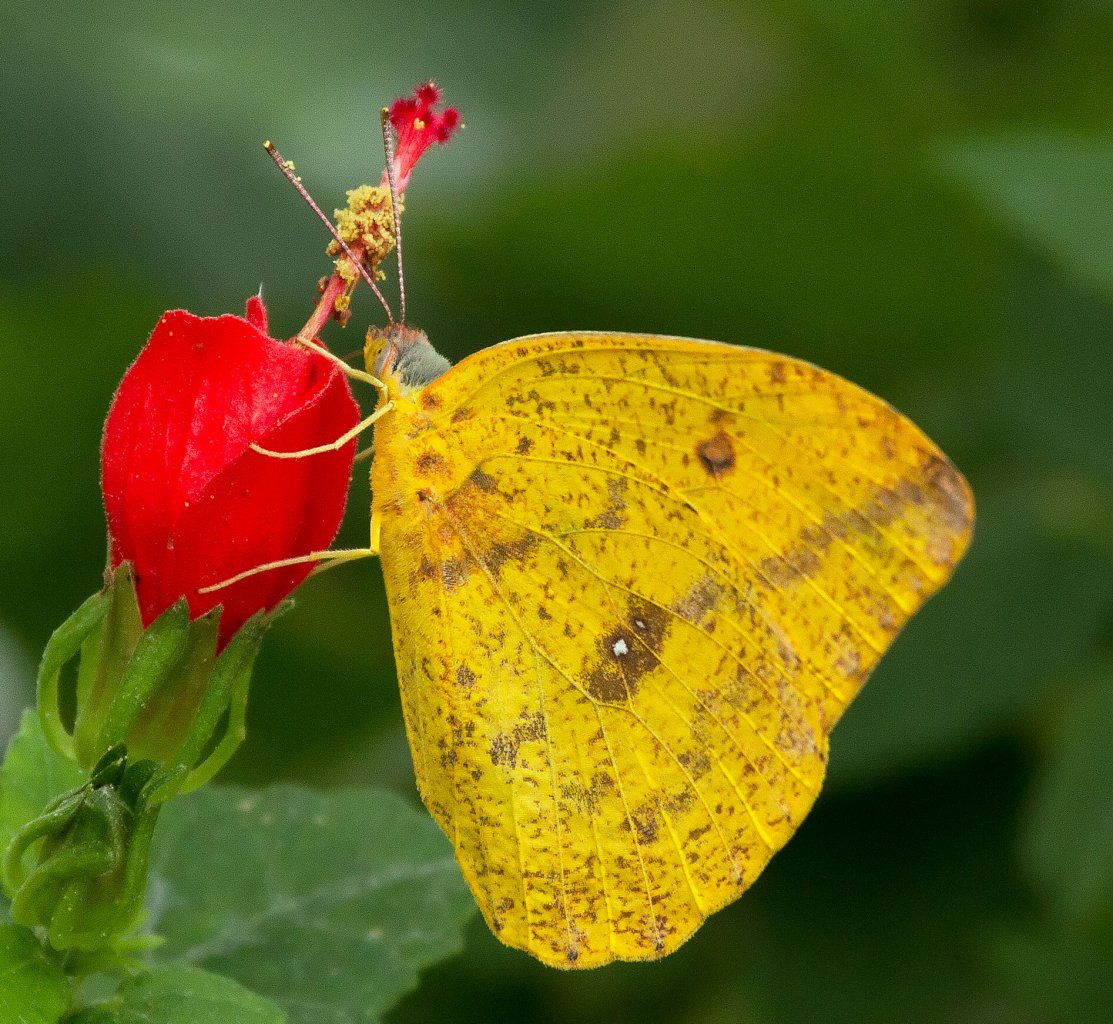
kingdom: Animalia
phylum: Arthropoda
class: Insecta
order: Lepidoptera
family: Pieridae
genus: Phoebis
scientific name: Phoebis agarithe
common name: Large Orange Sulphur
